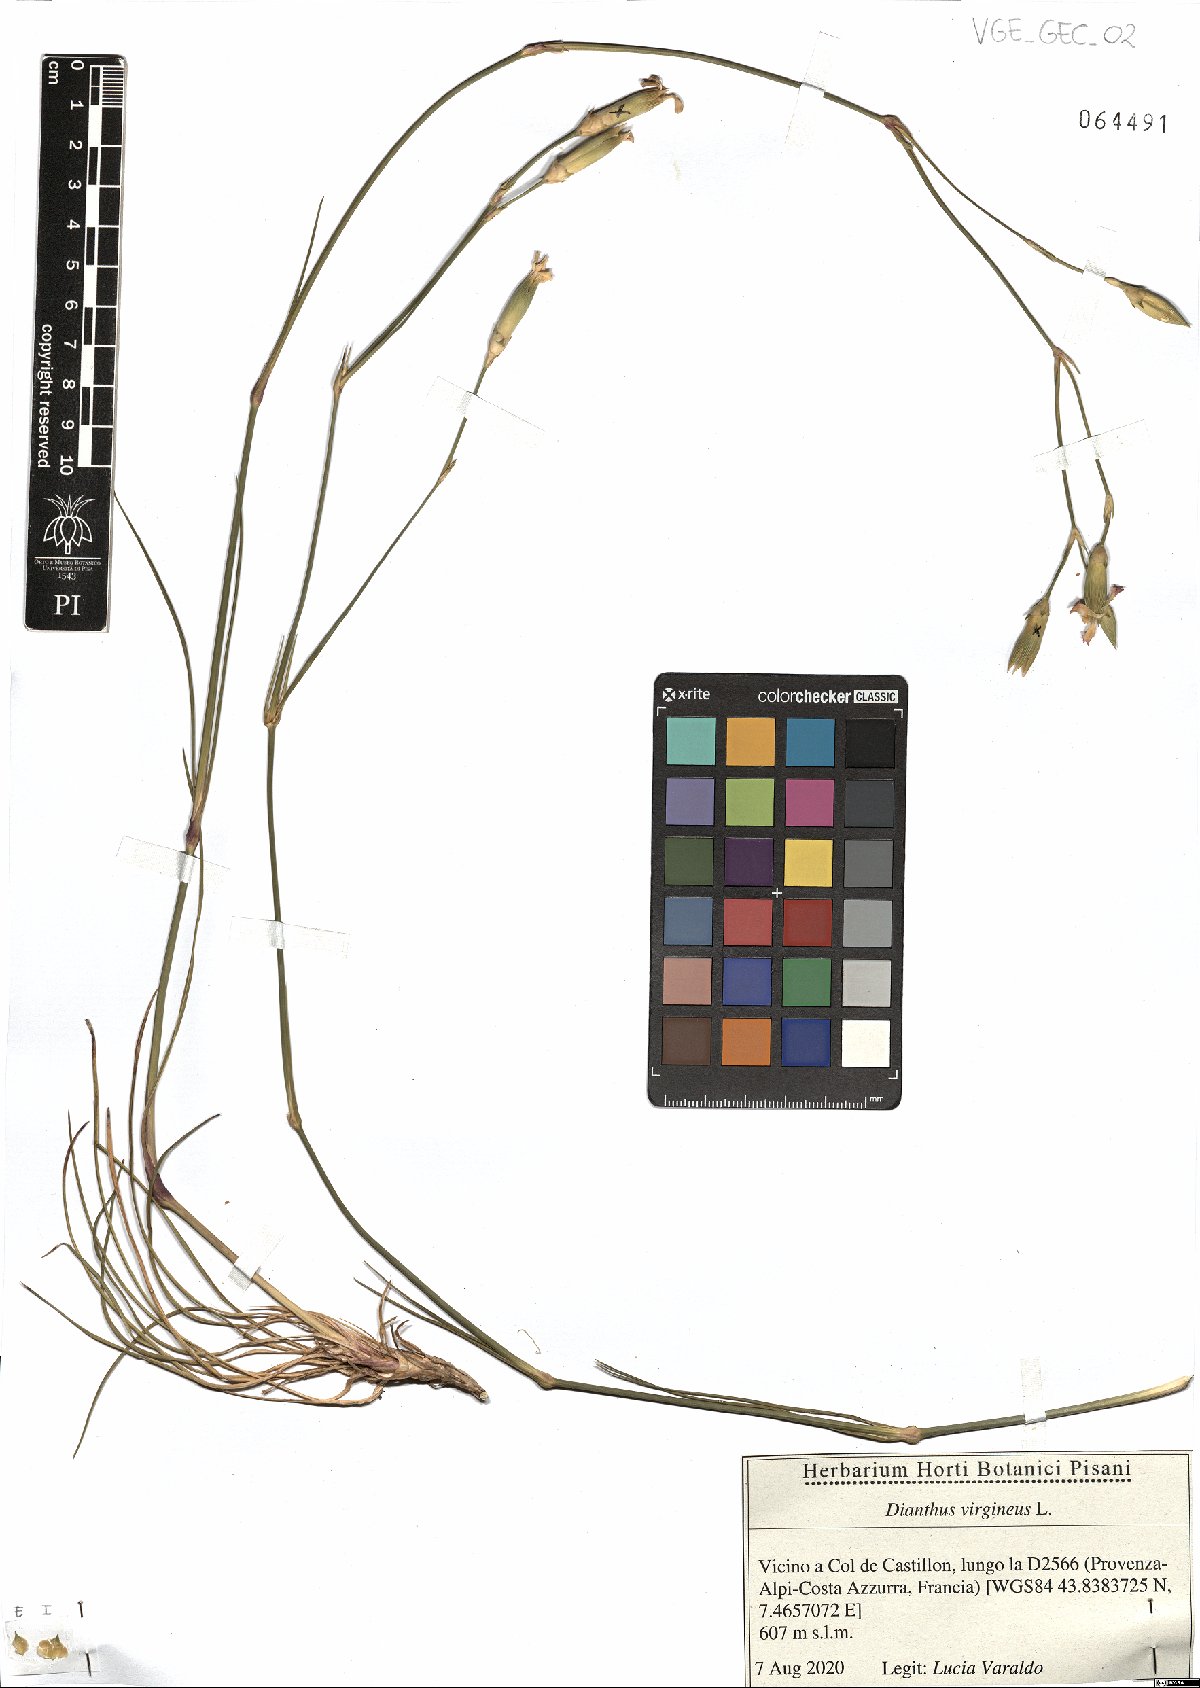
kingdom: Plantae
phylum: Tracheophyta
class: Magnoliopsida
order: Caryophyllales
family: Caryophyllaceae
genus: Dianthus
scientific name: Dianthus virgineus
